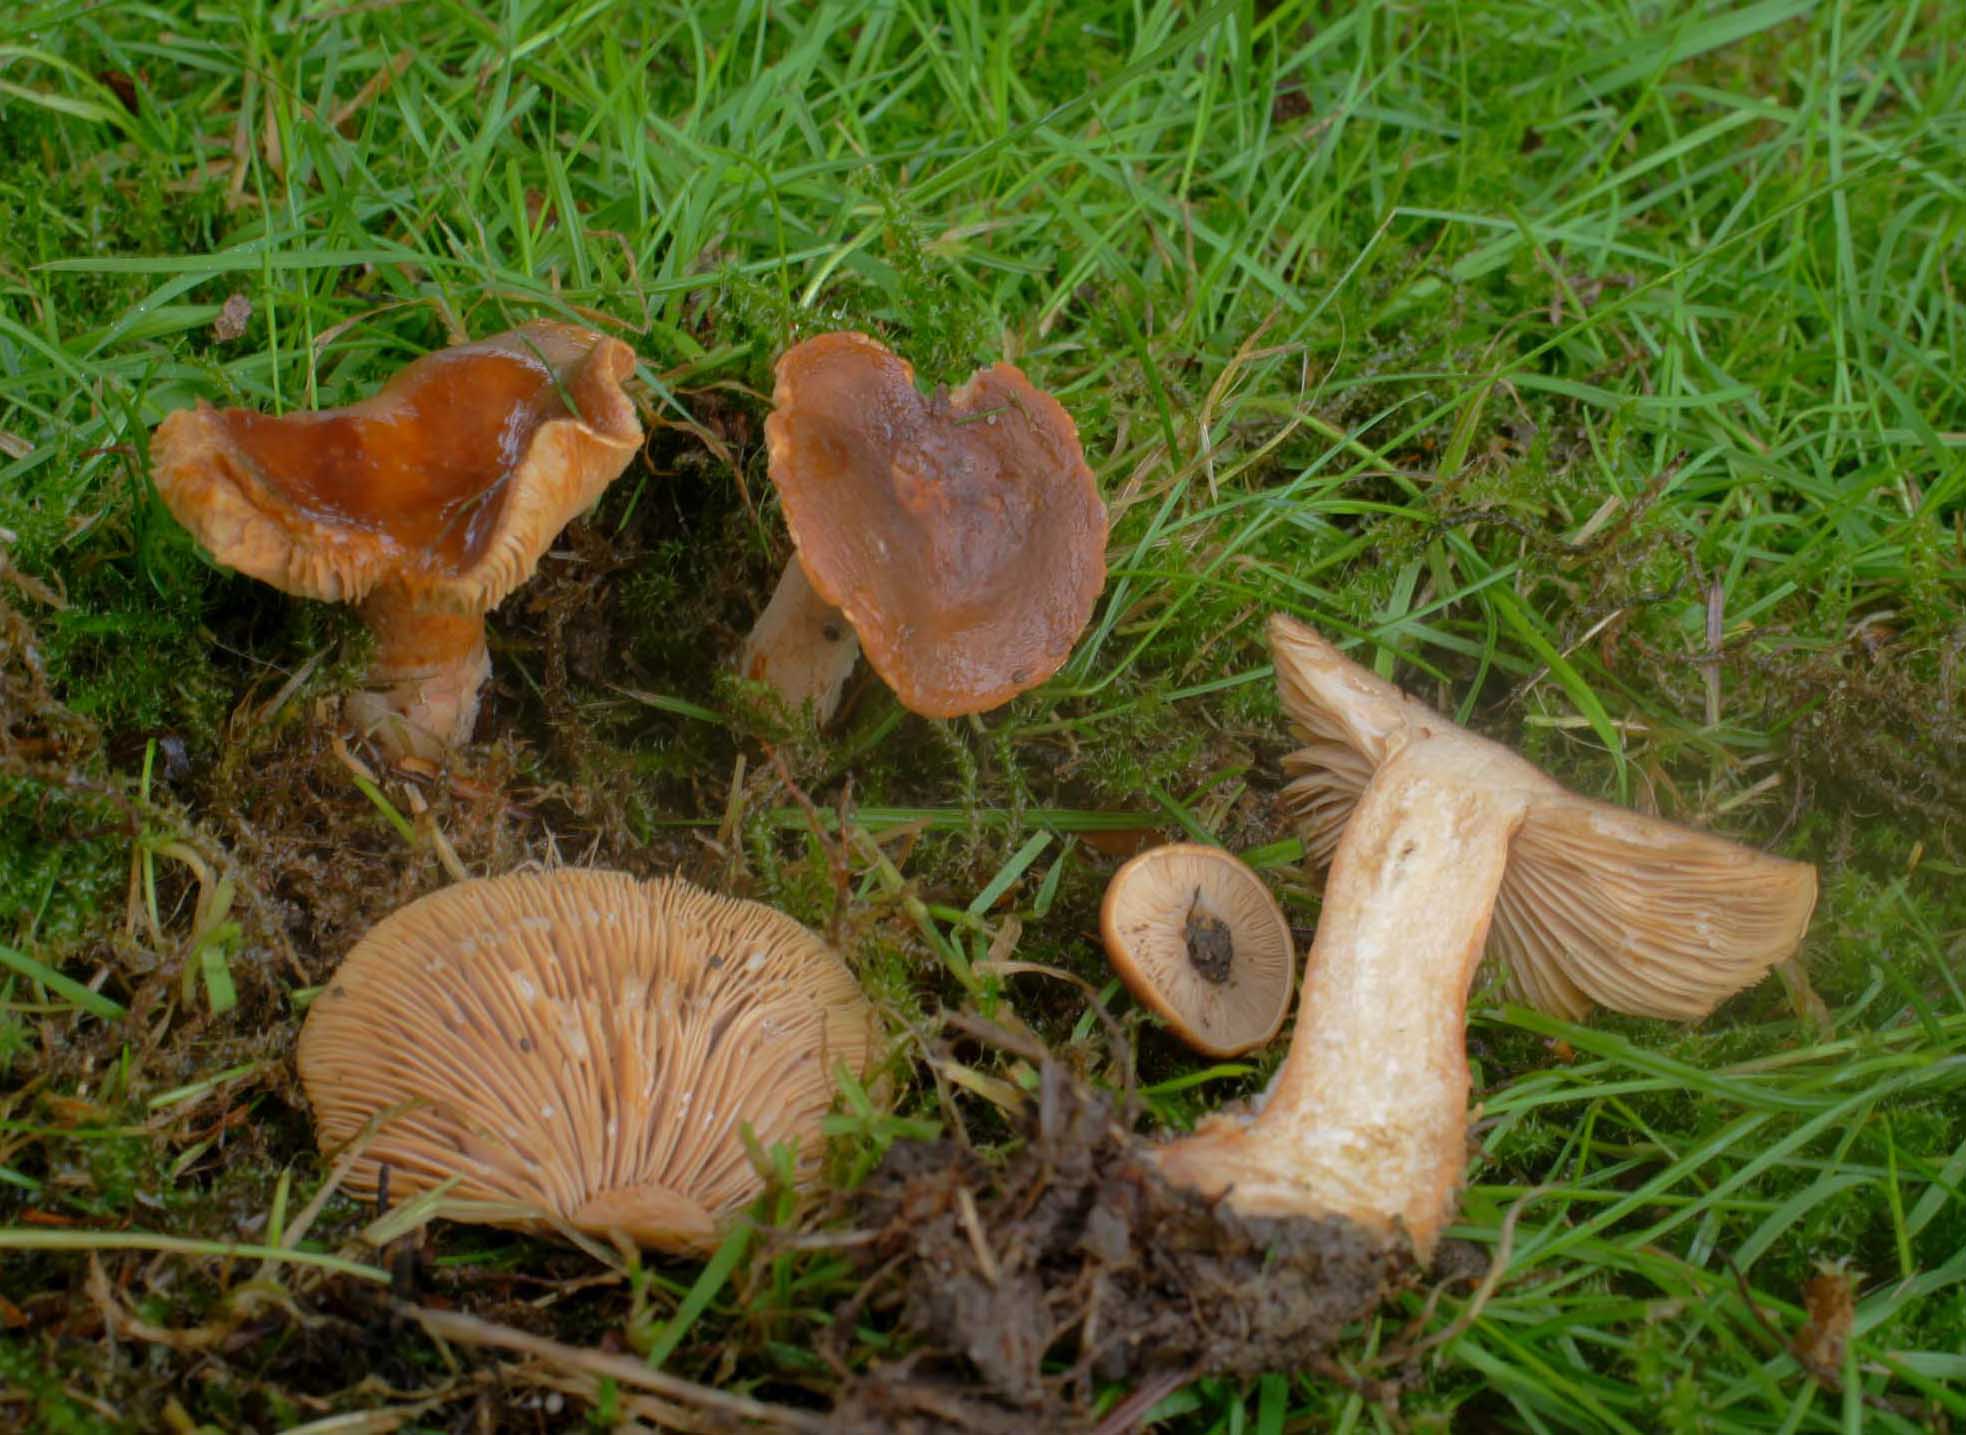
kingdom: Fungi
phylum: Basidiomycota
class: Agaricomycetes
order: Russulales
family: Russulaceae
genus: Lactarius
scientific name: Lactarius subdulcis
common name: sødlig mælkehat
